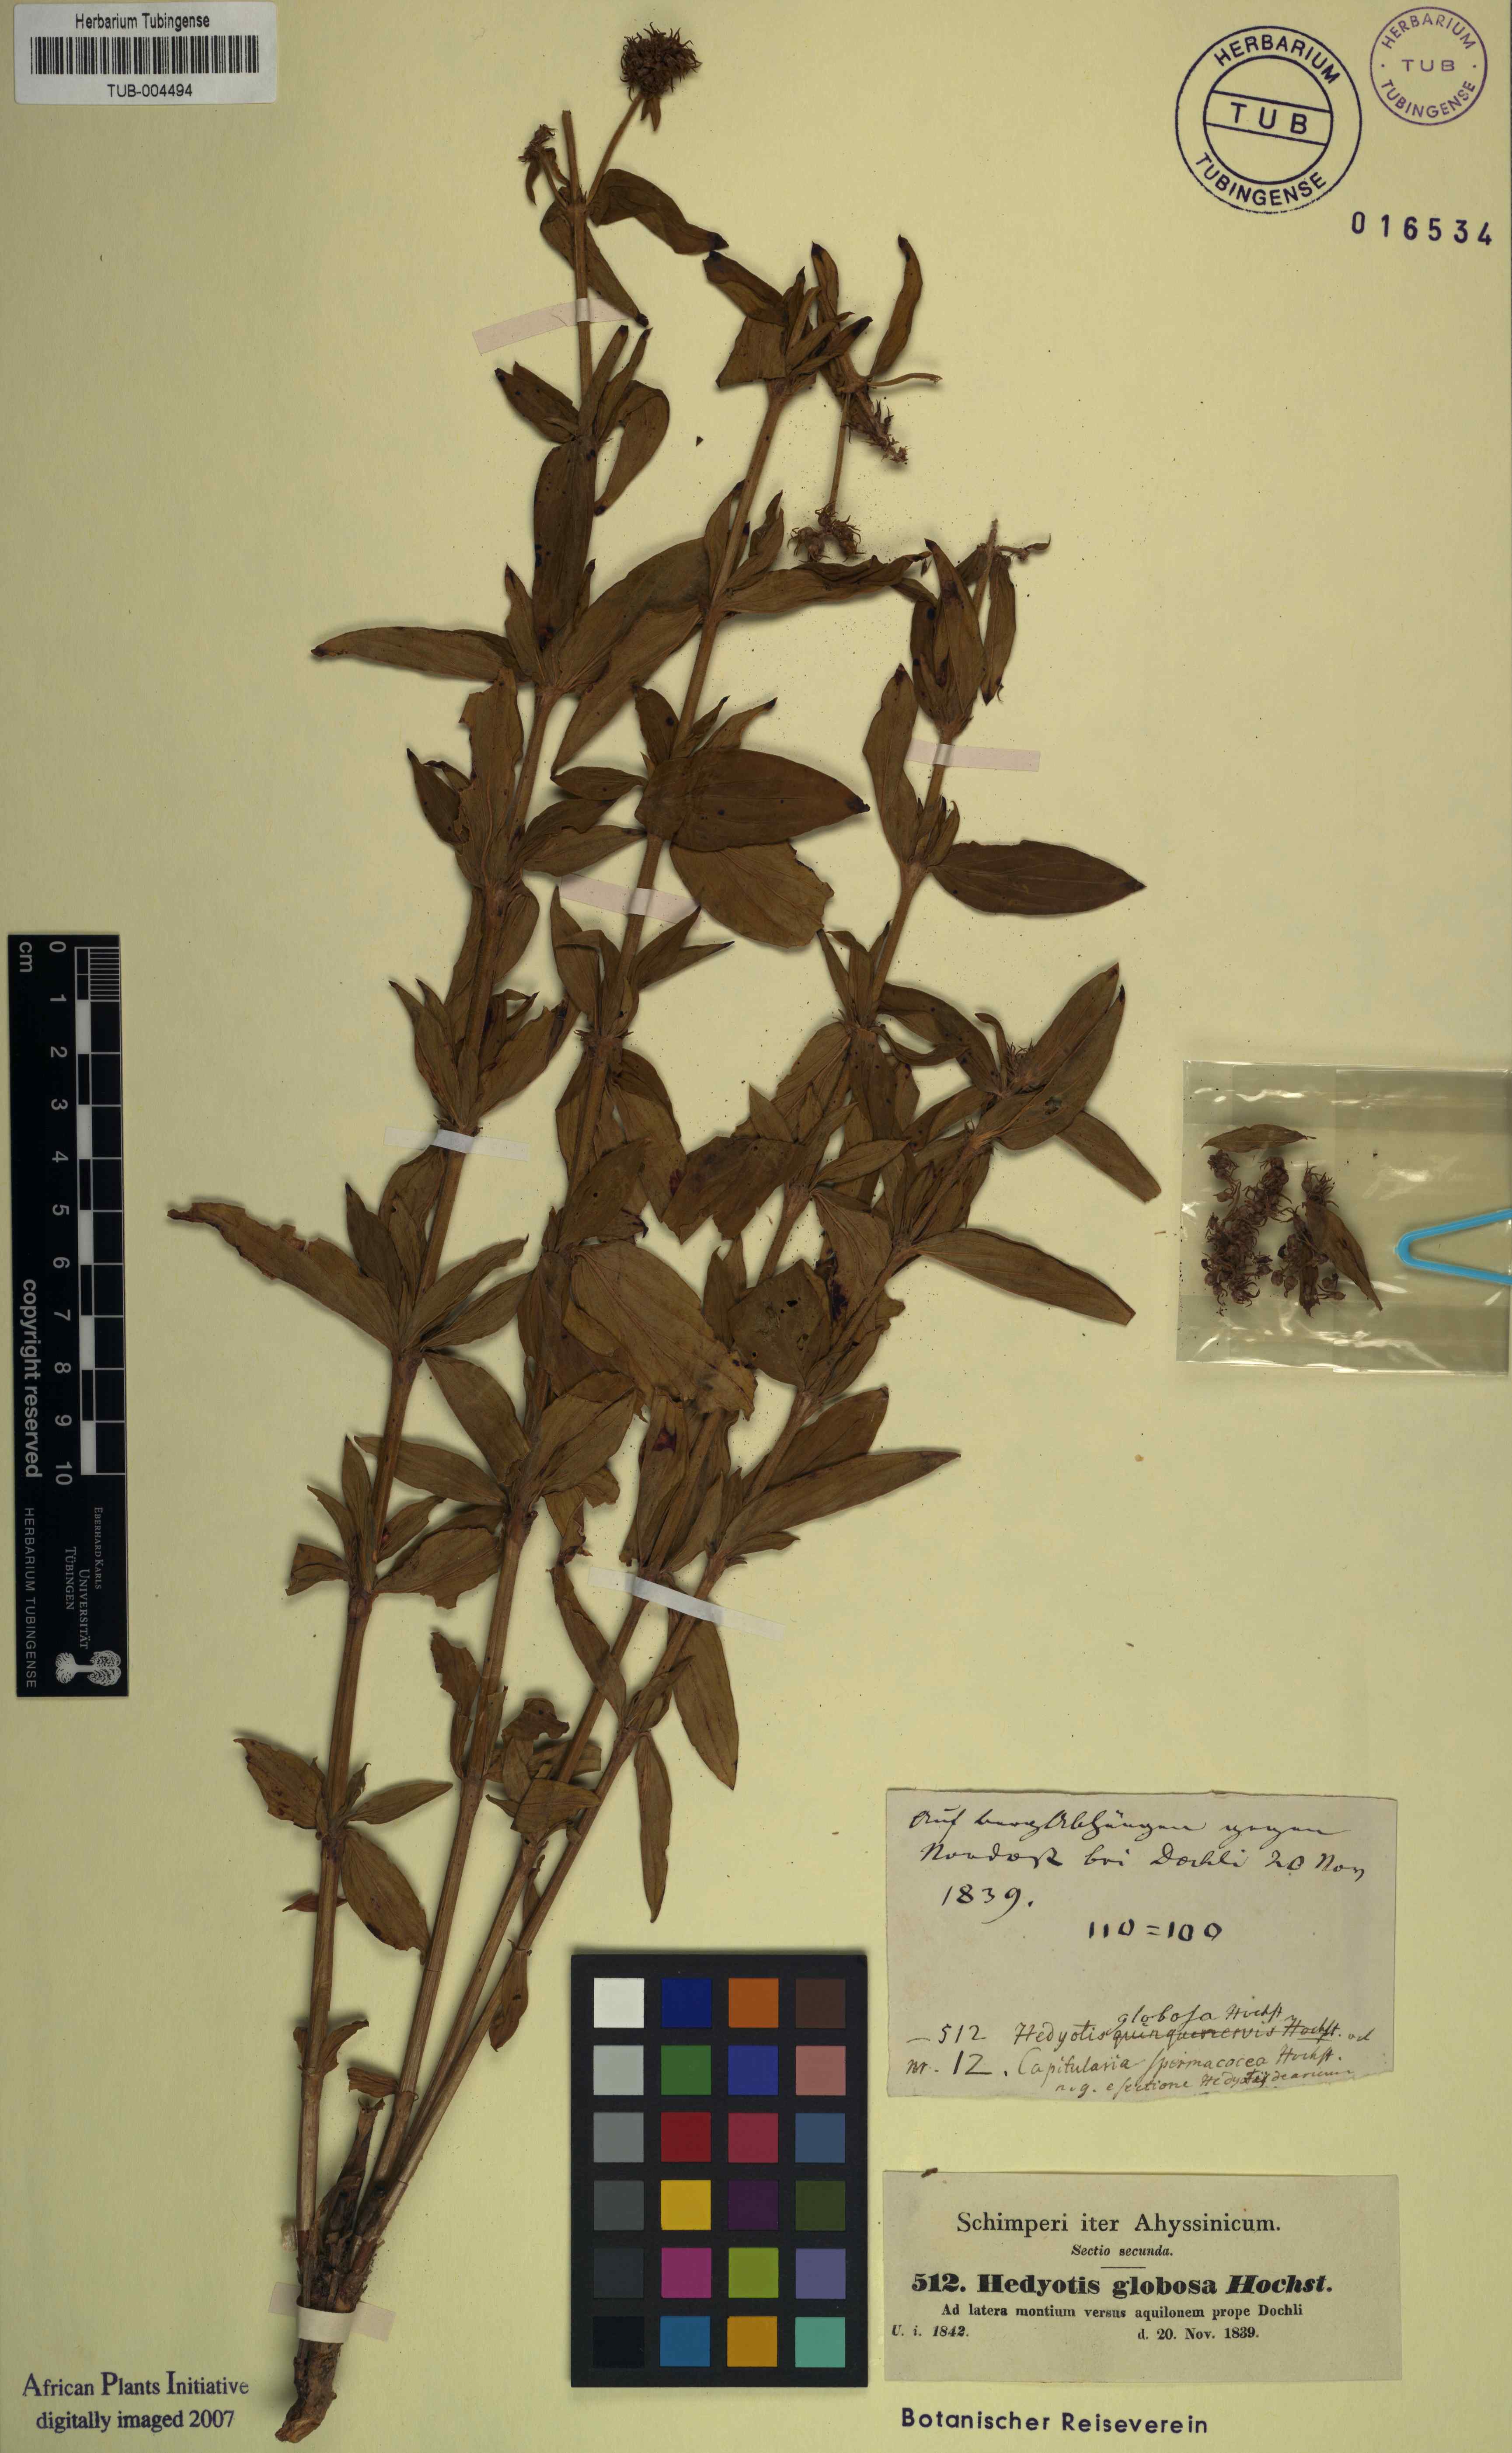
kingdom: Plantae
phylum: Tracheophyta
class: Magnoliopsida
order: Gentianales
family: Rubiaceae
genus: Agathisanthemum
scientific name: Agathisanthemum globosum
